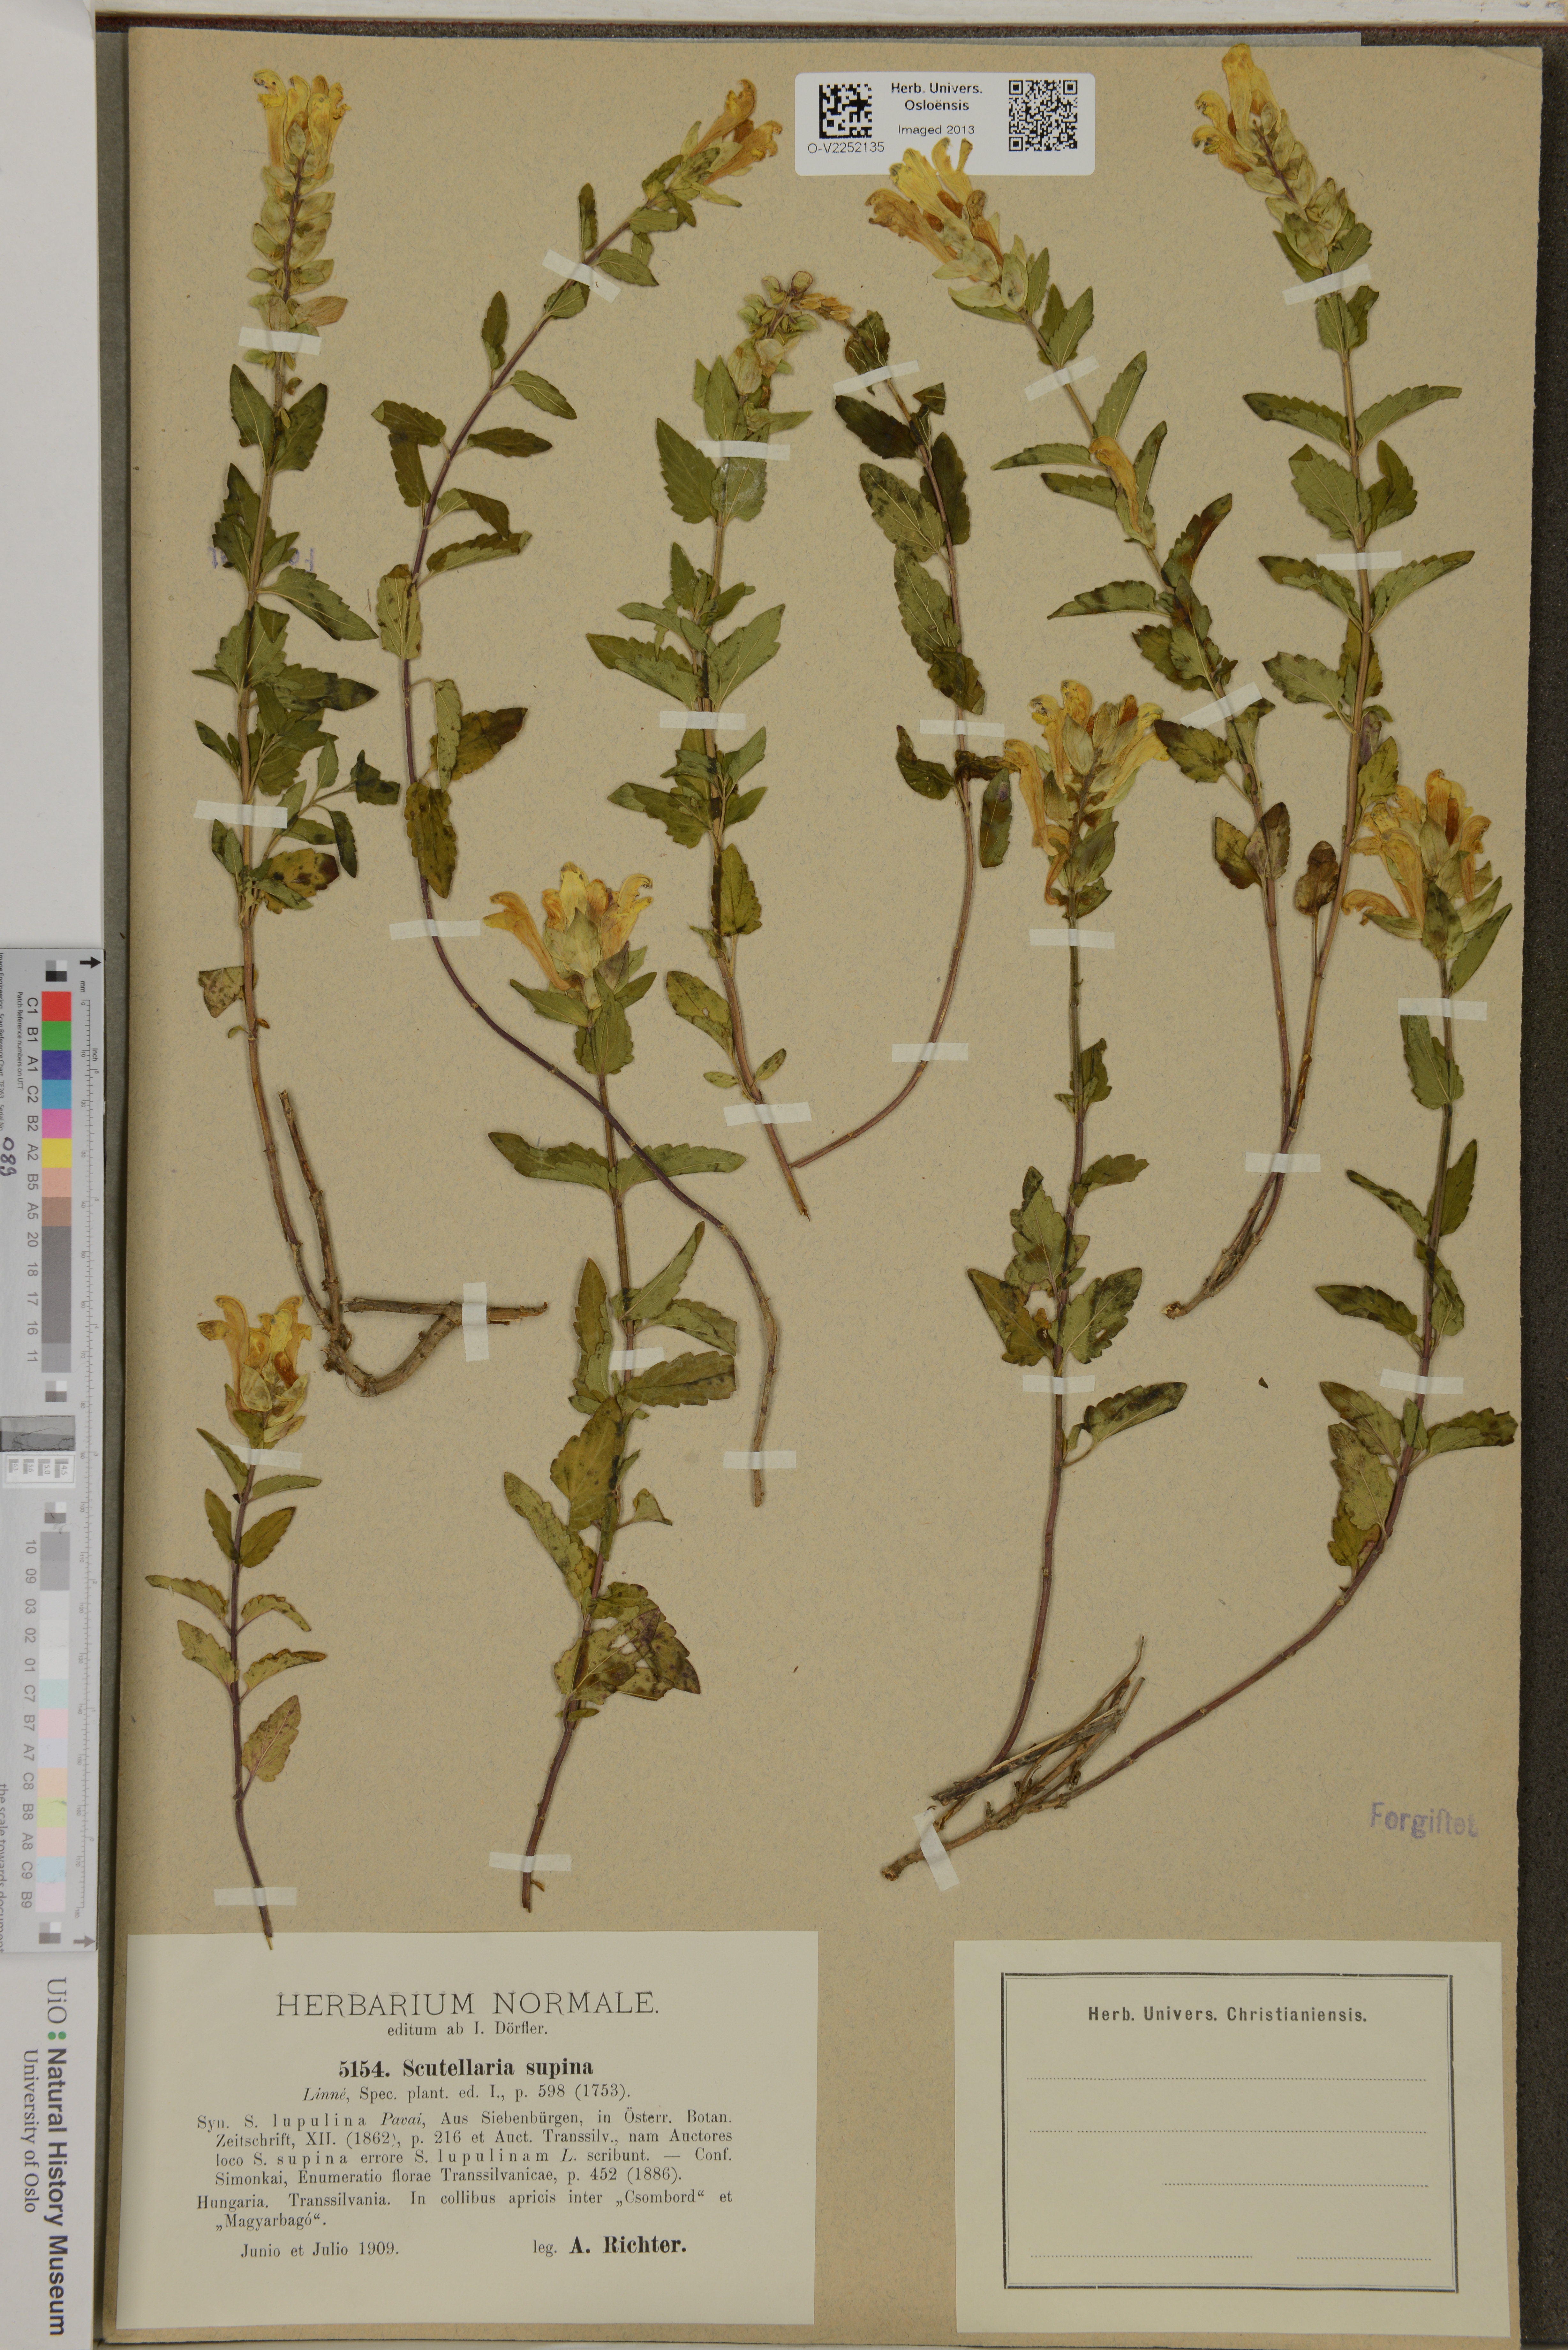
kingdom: Plantae
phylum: Tracheophyta
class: Magnoliopsida
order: Lamiales
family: Lamiaceae
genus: Scutellaria
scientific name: Scutellaria supina
